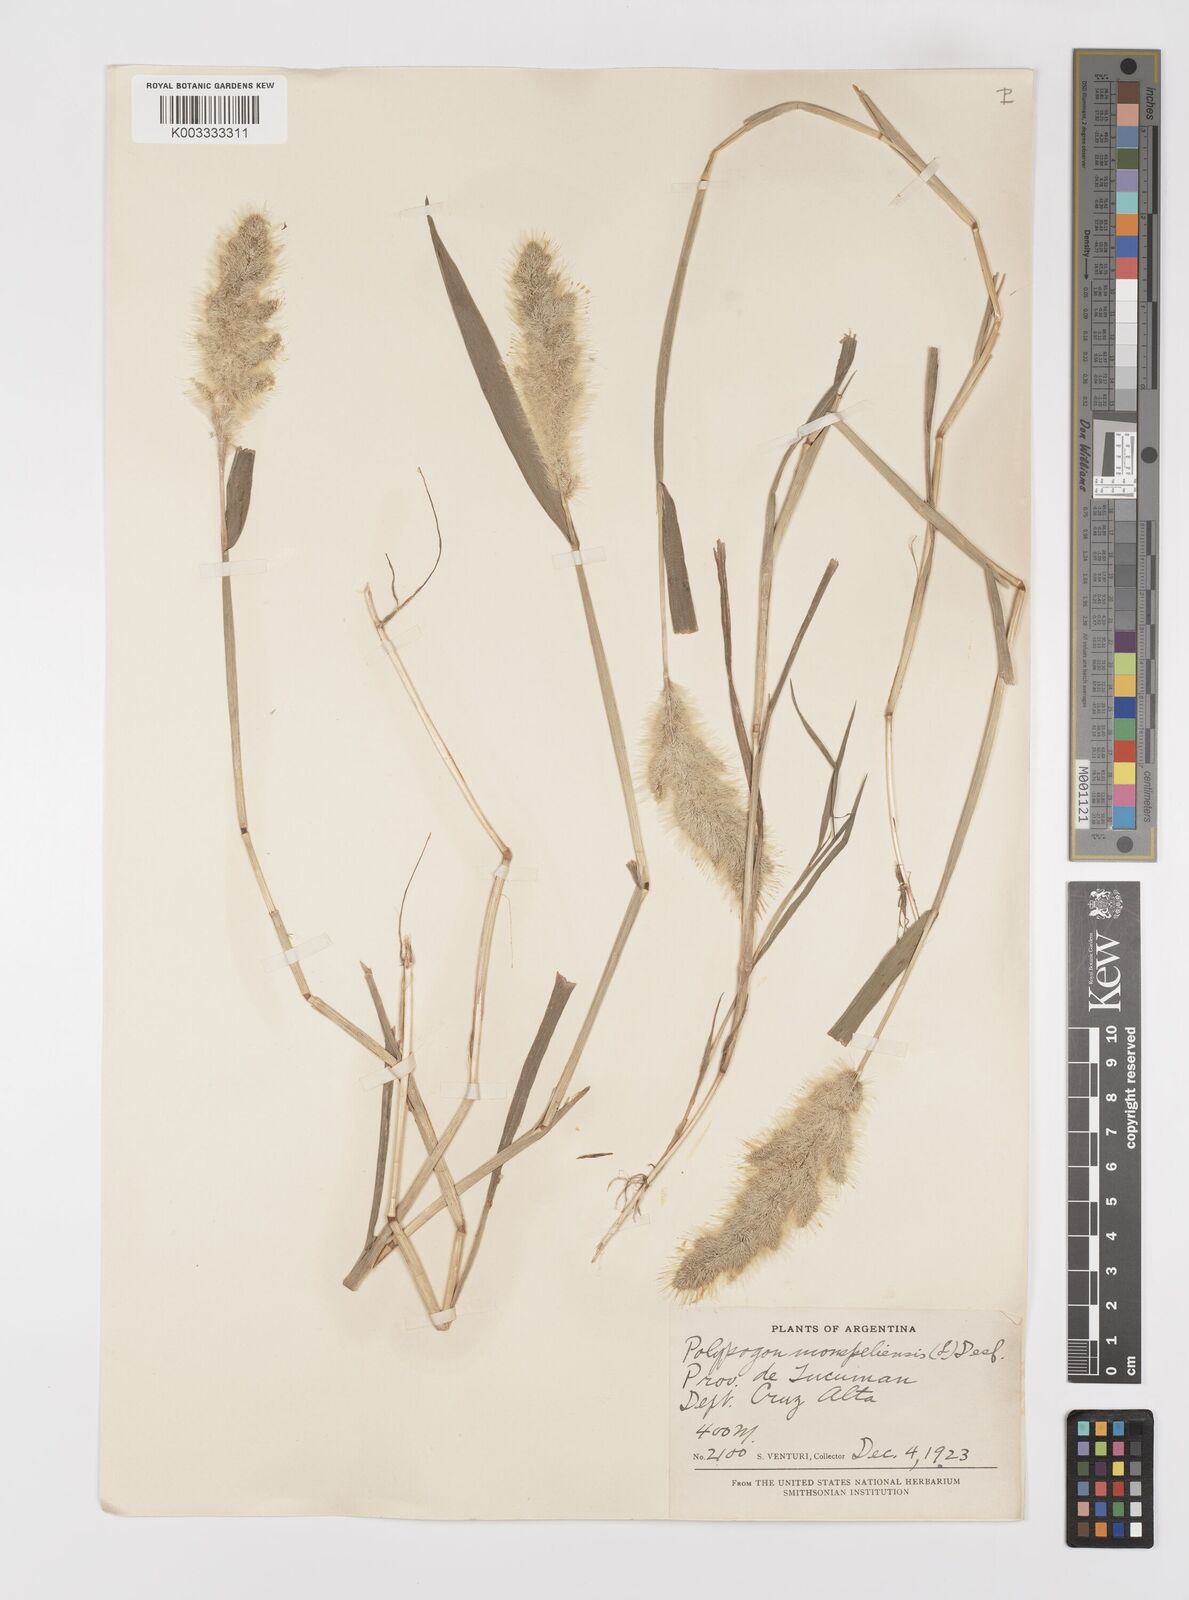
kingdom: Plantae
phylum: Tracheophyta
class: Liliopsida
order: Poales
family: Poaceae
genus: Polypogon
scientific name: Polypogon monspeliensis
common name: Annual rabbitsfoot grass
